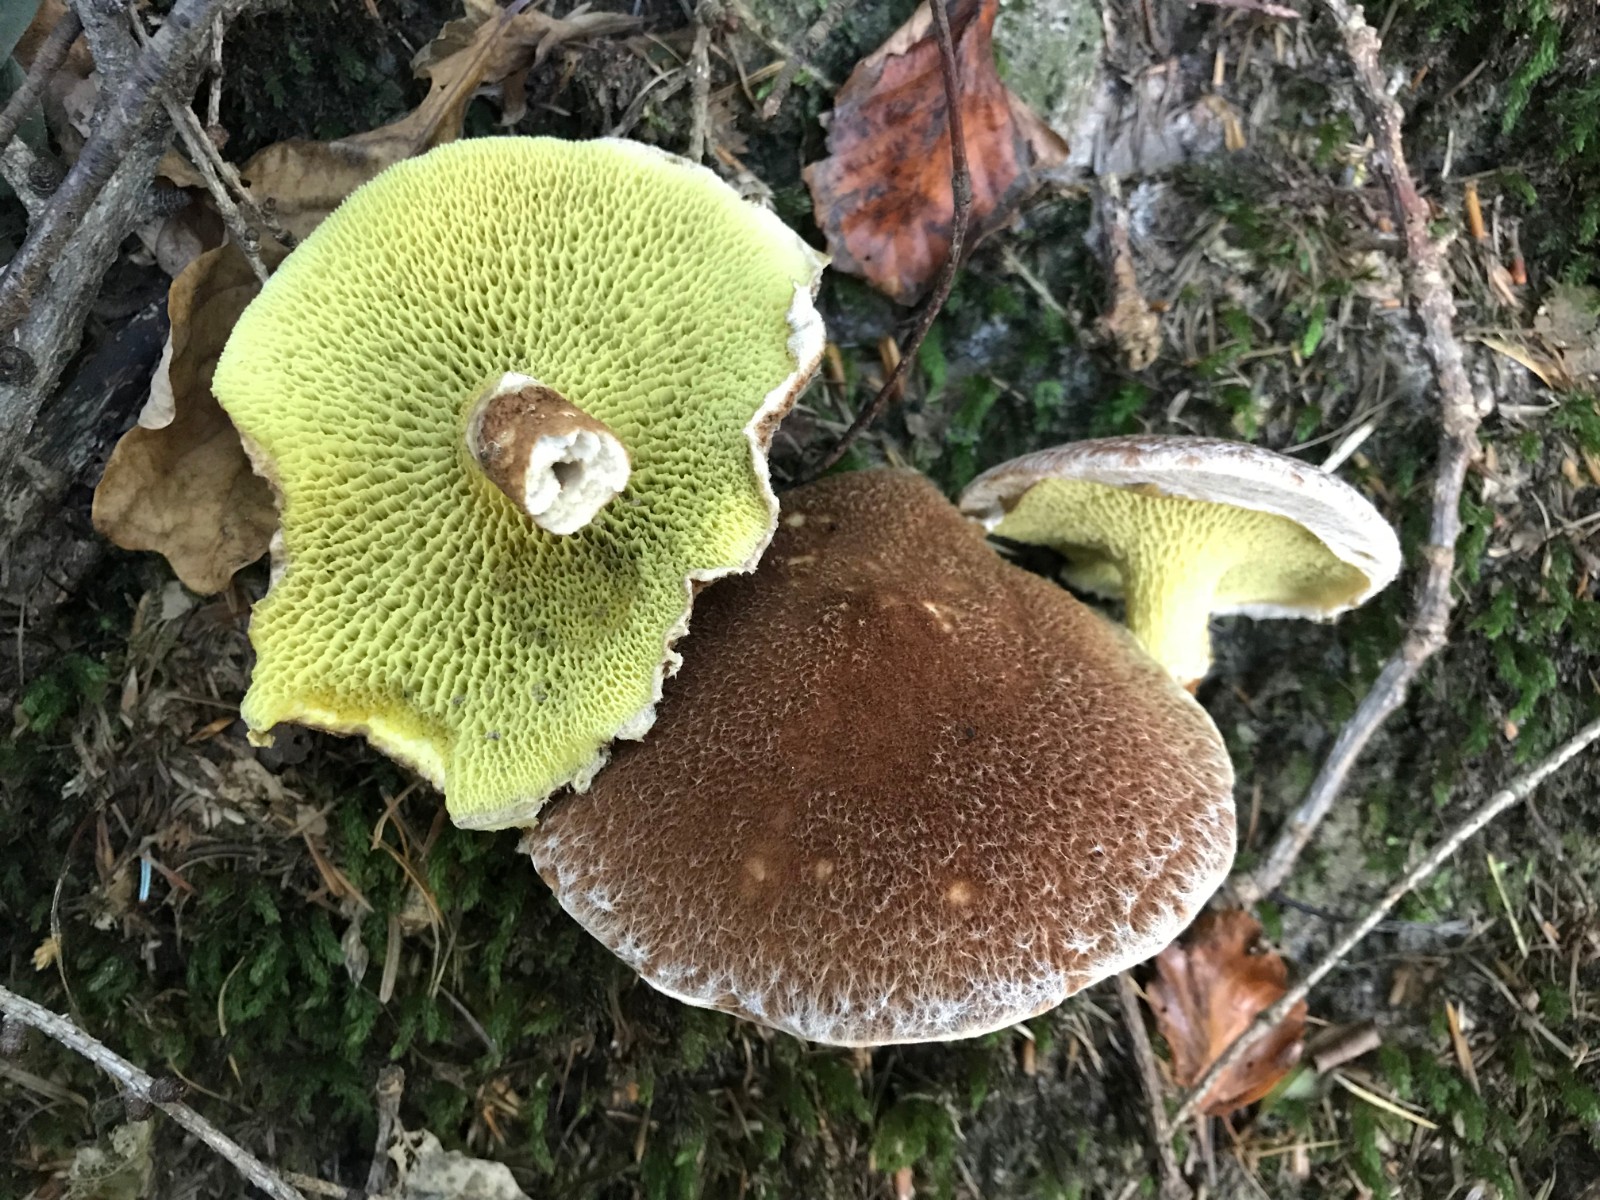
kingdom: Fungi
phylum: Basidiomycota
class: Agaricomycetes
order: Boletales
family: Suillaceae
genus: Suillus
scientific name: Suillus cavipes
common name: hulstokket slimrørhat
